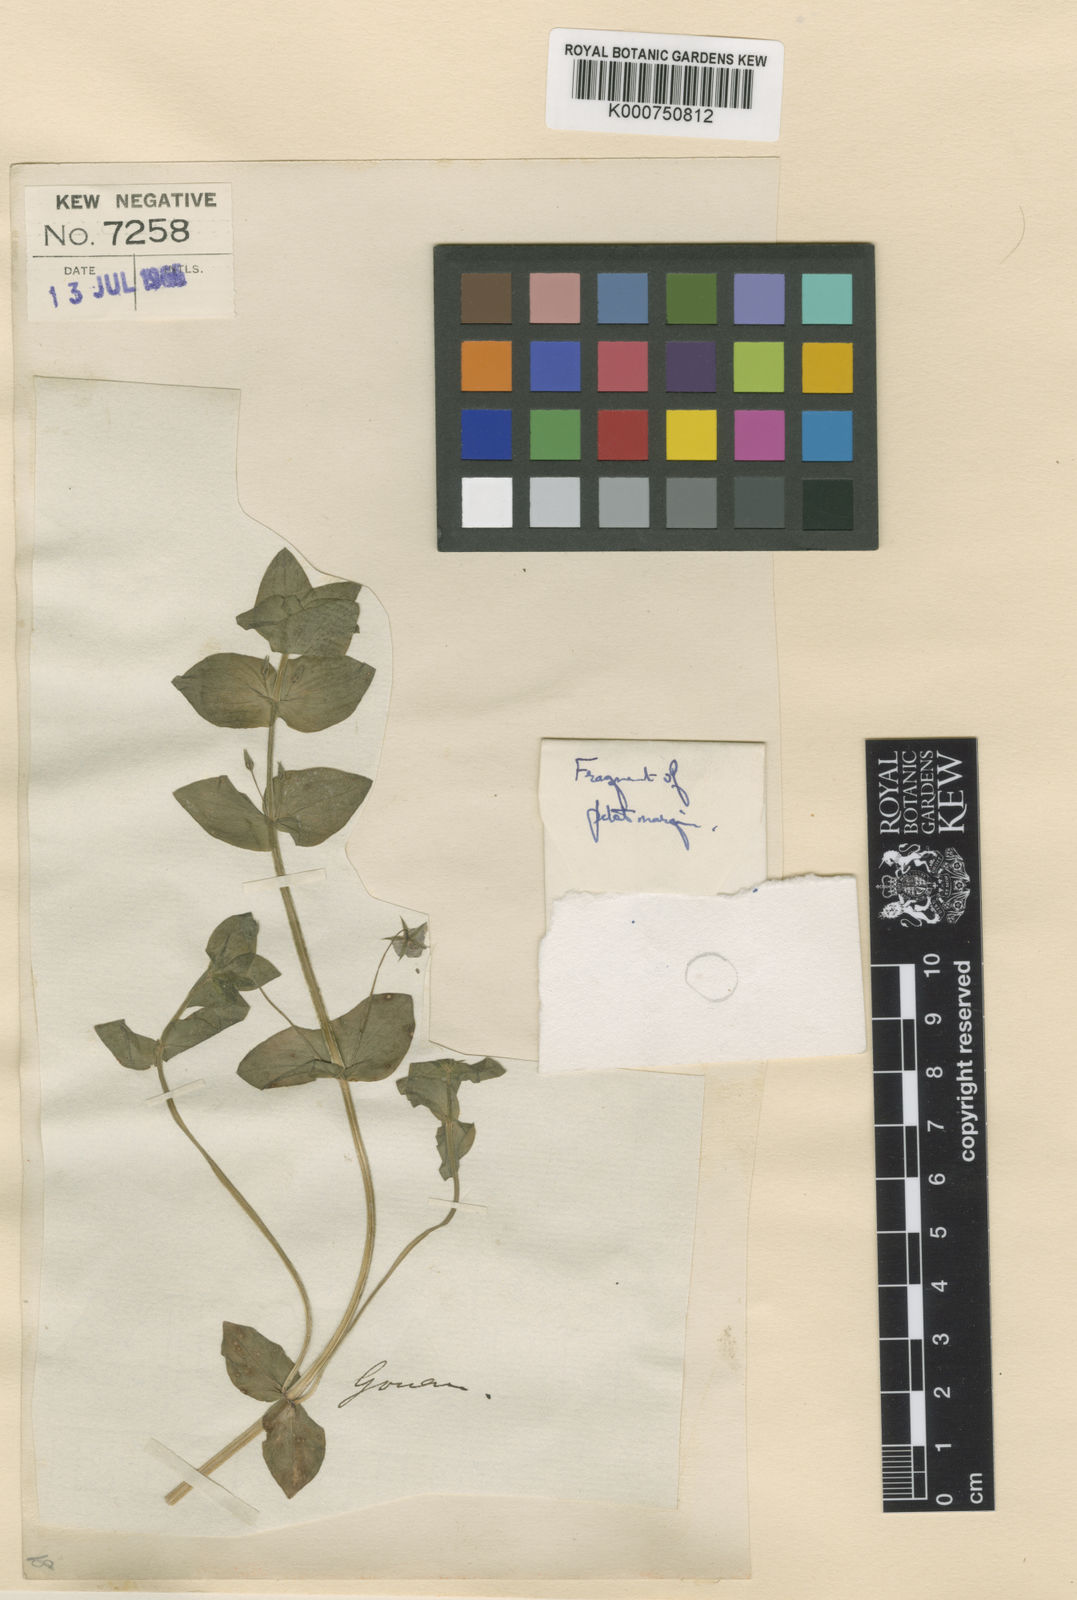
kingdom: Plantae
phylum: Tracheophyta
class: Magnoliopsida
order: Ericales
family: Primulaceae
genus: Lysimachia
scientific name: Lysimachia arvensis
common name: Scarlet pimpernel
